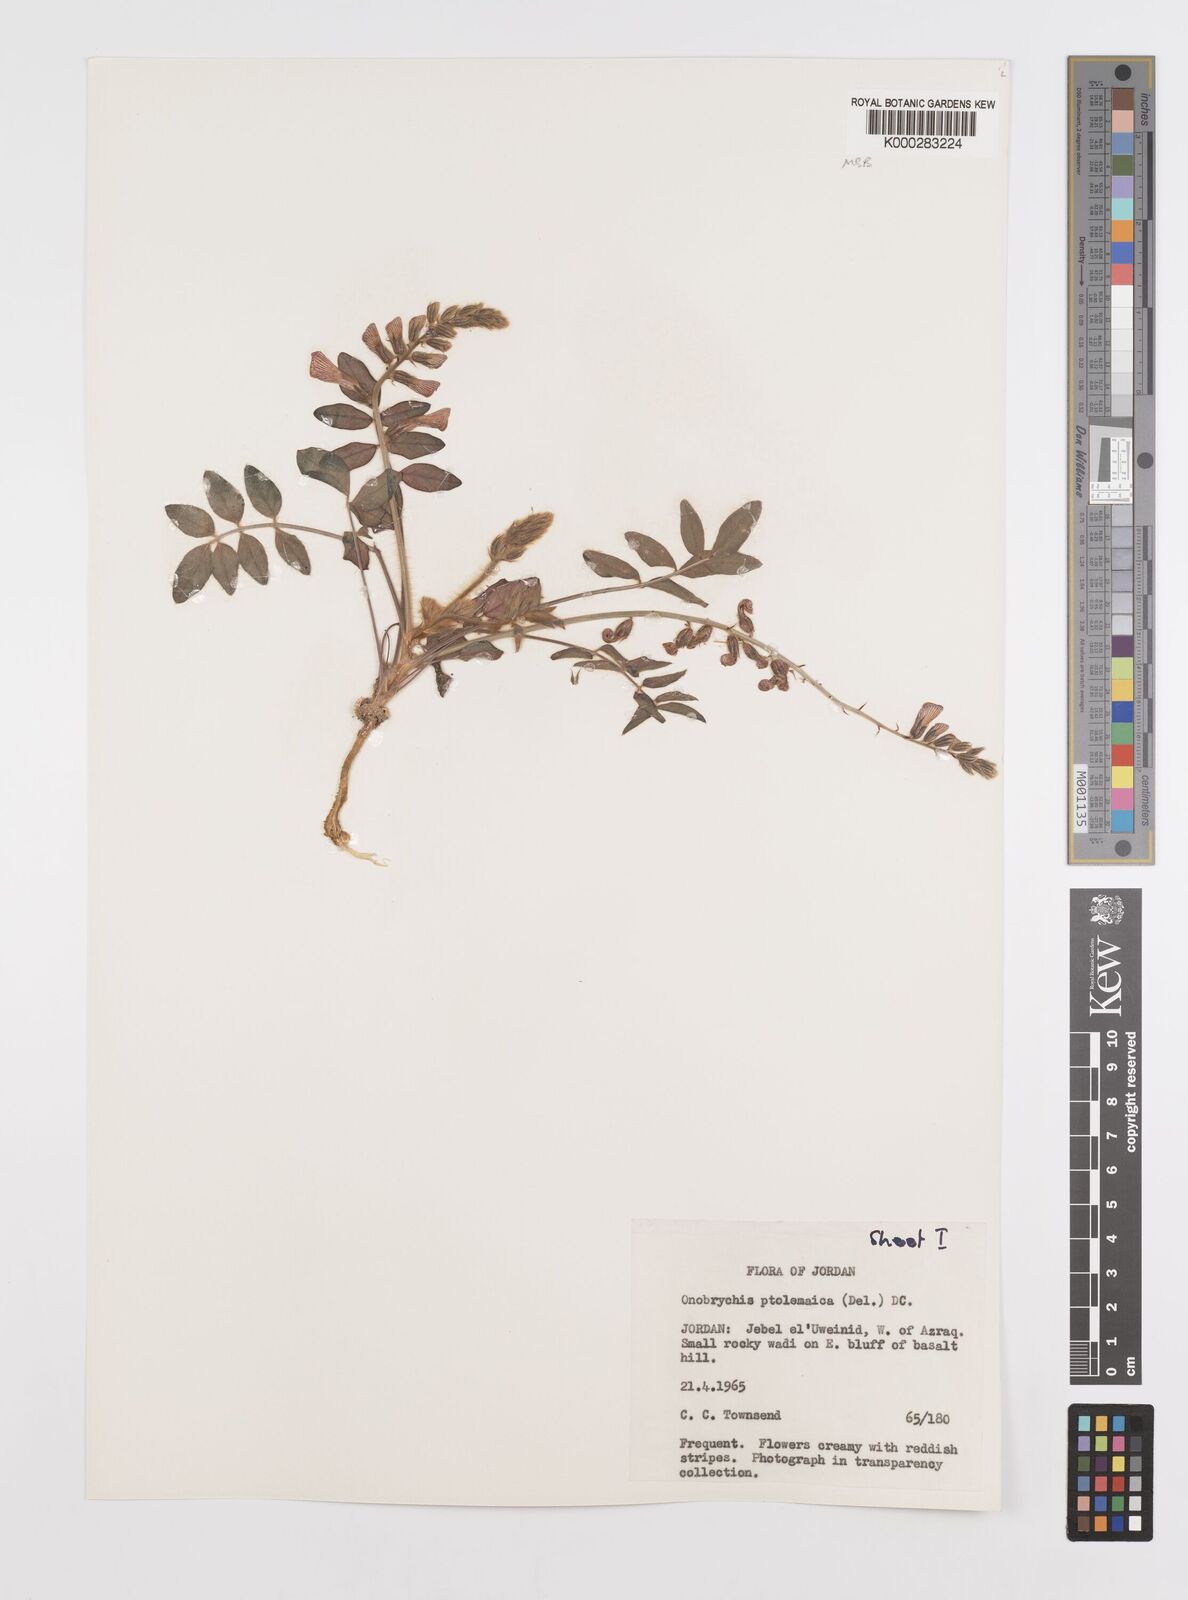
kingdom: Plantae
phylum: Tracheophyta
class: Magnoliopsida
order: Fabales
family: Fabaceae
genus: Onobrychis
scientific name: Onobrychis ptolemaica
